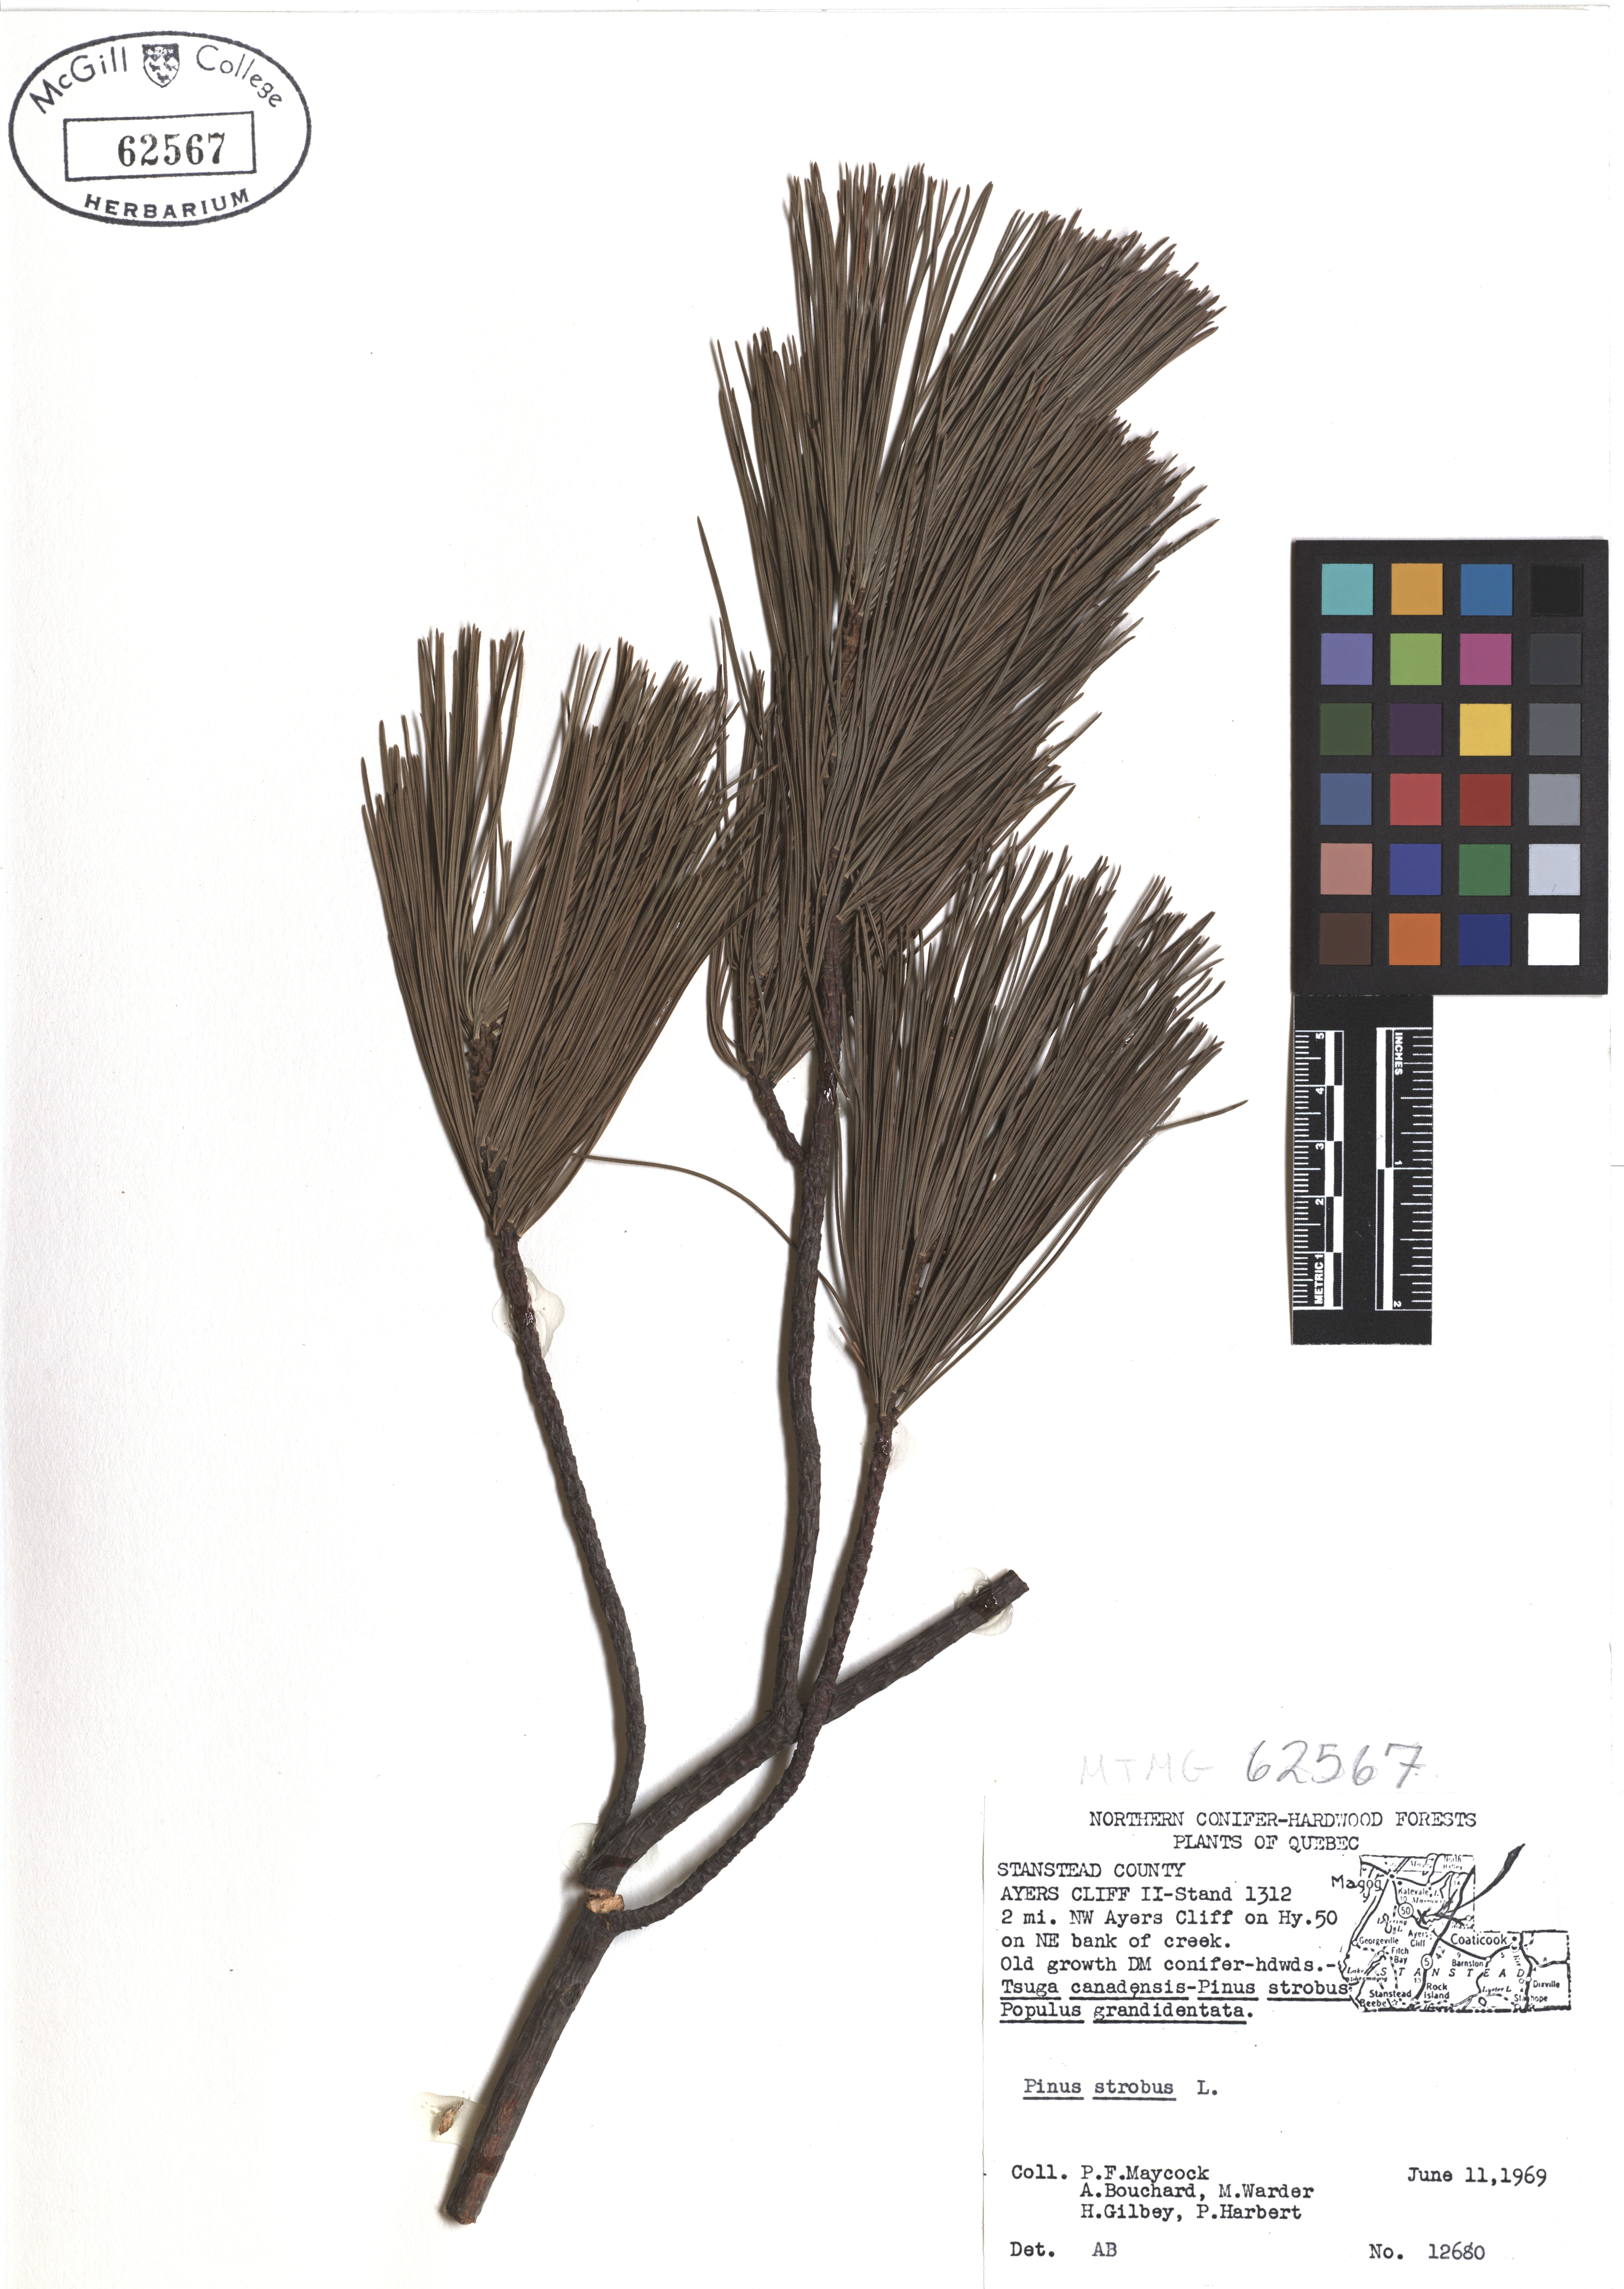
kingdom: Plantae
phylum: Tracheophyta
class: Pinopsida
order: Pinales
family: Pinaceae
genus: Pinus
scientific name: Pinus strobus
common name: Weymouth pine
